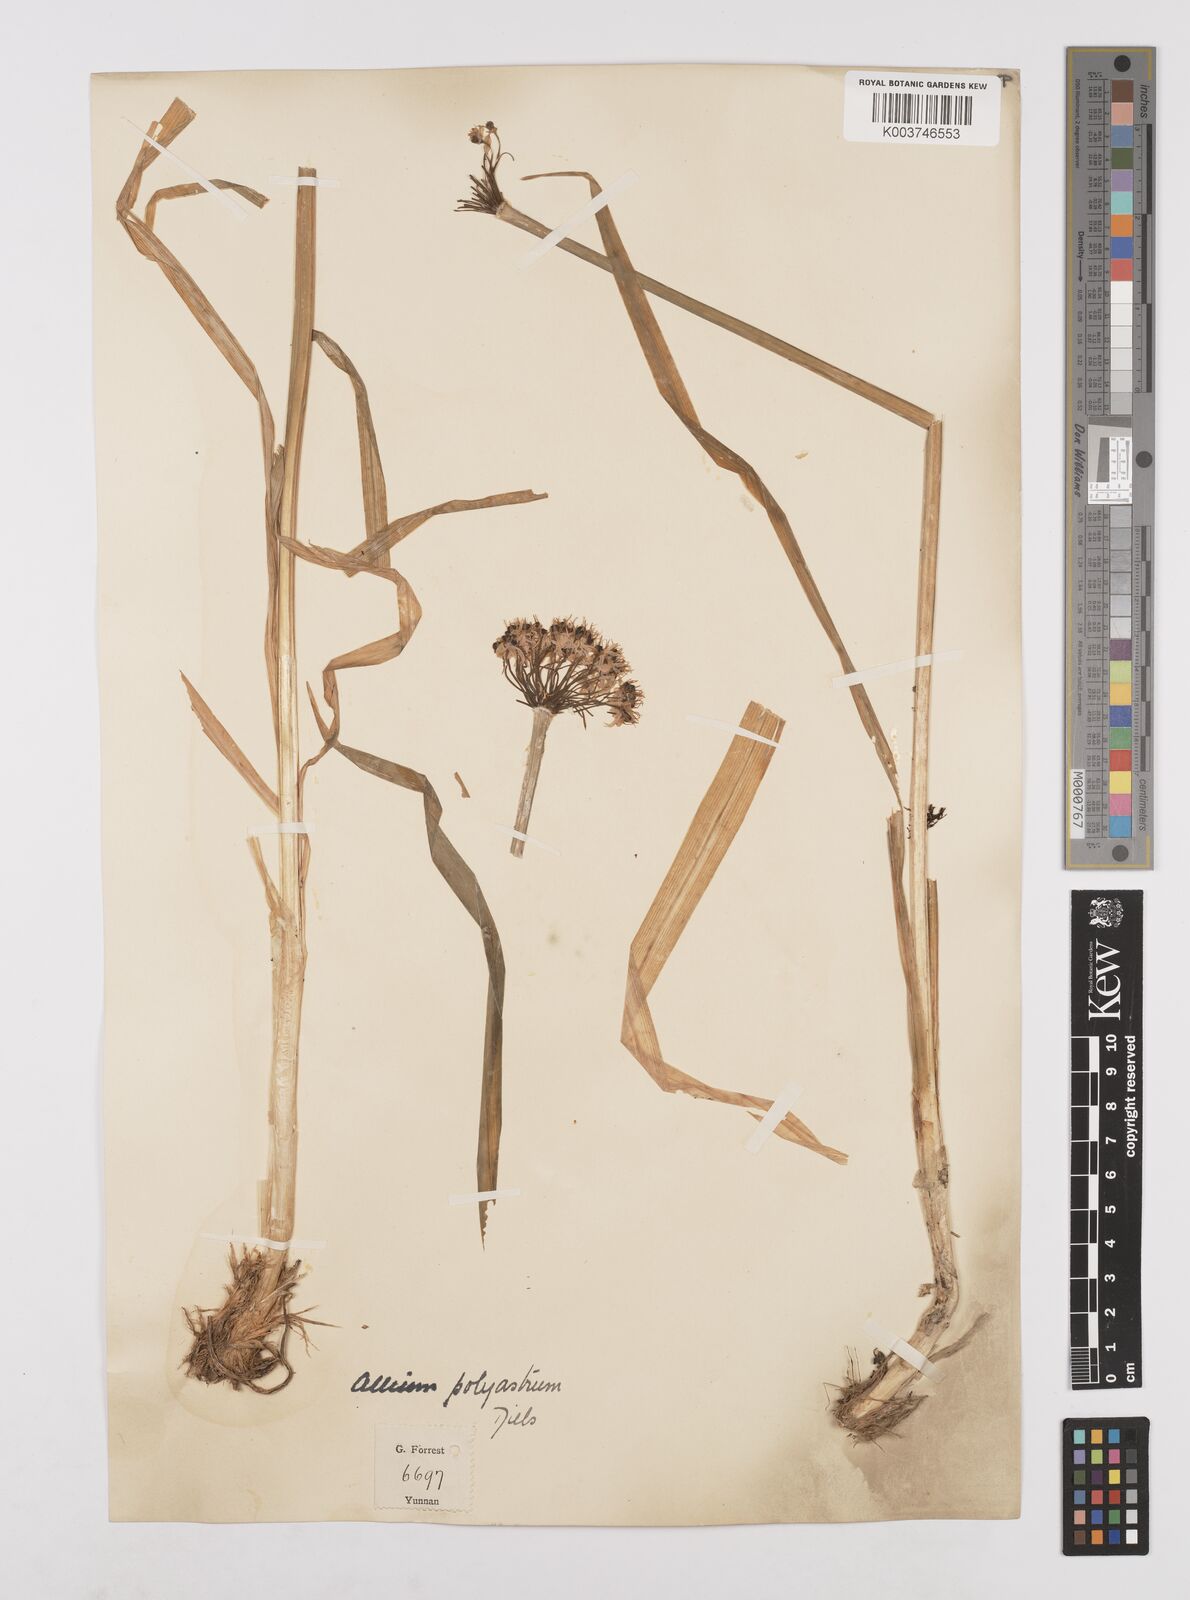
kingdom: Plantae
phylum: Tracheophyta
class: Liliopsida
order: Asparagales
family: Amaryllidaceae
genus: Allium
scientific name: Allium wallichii
